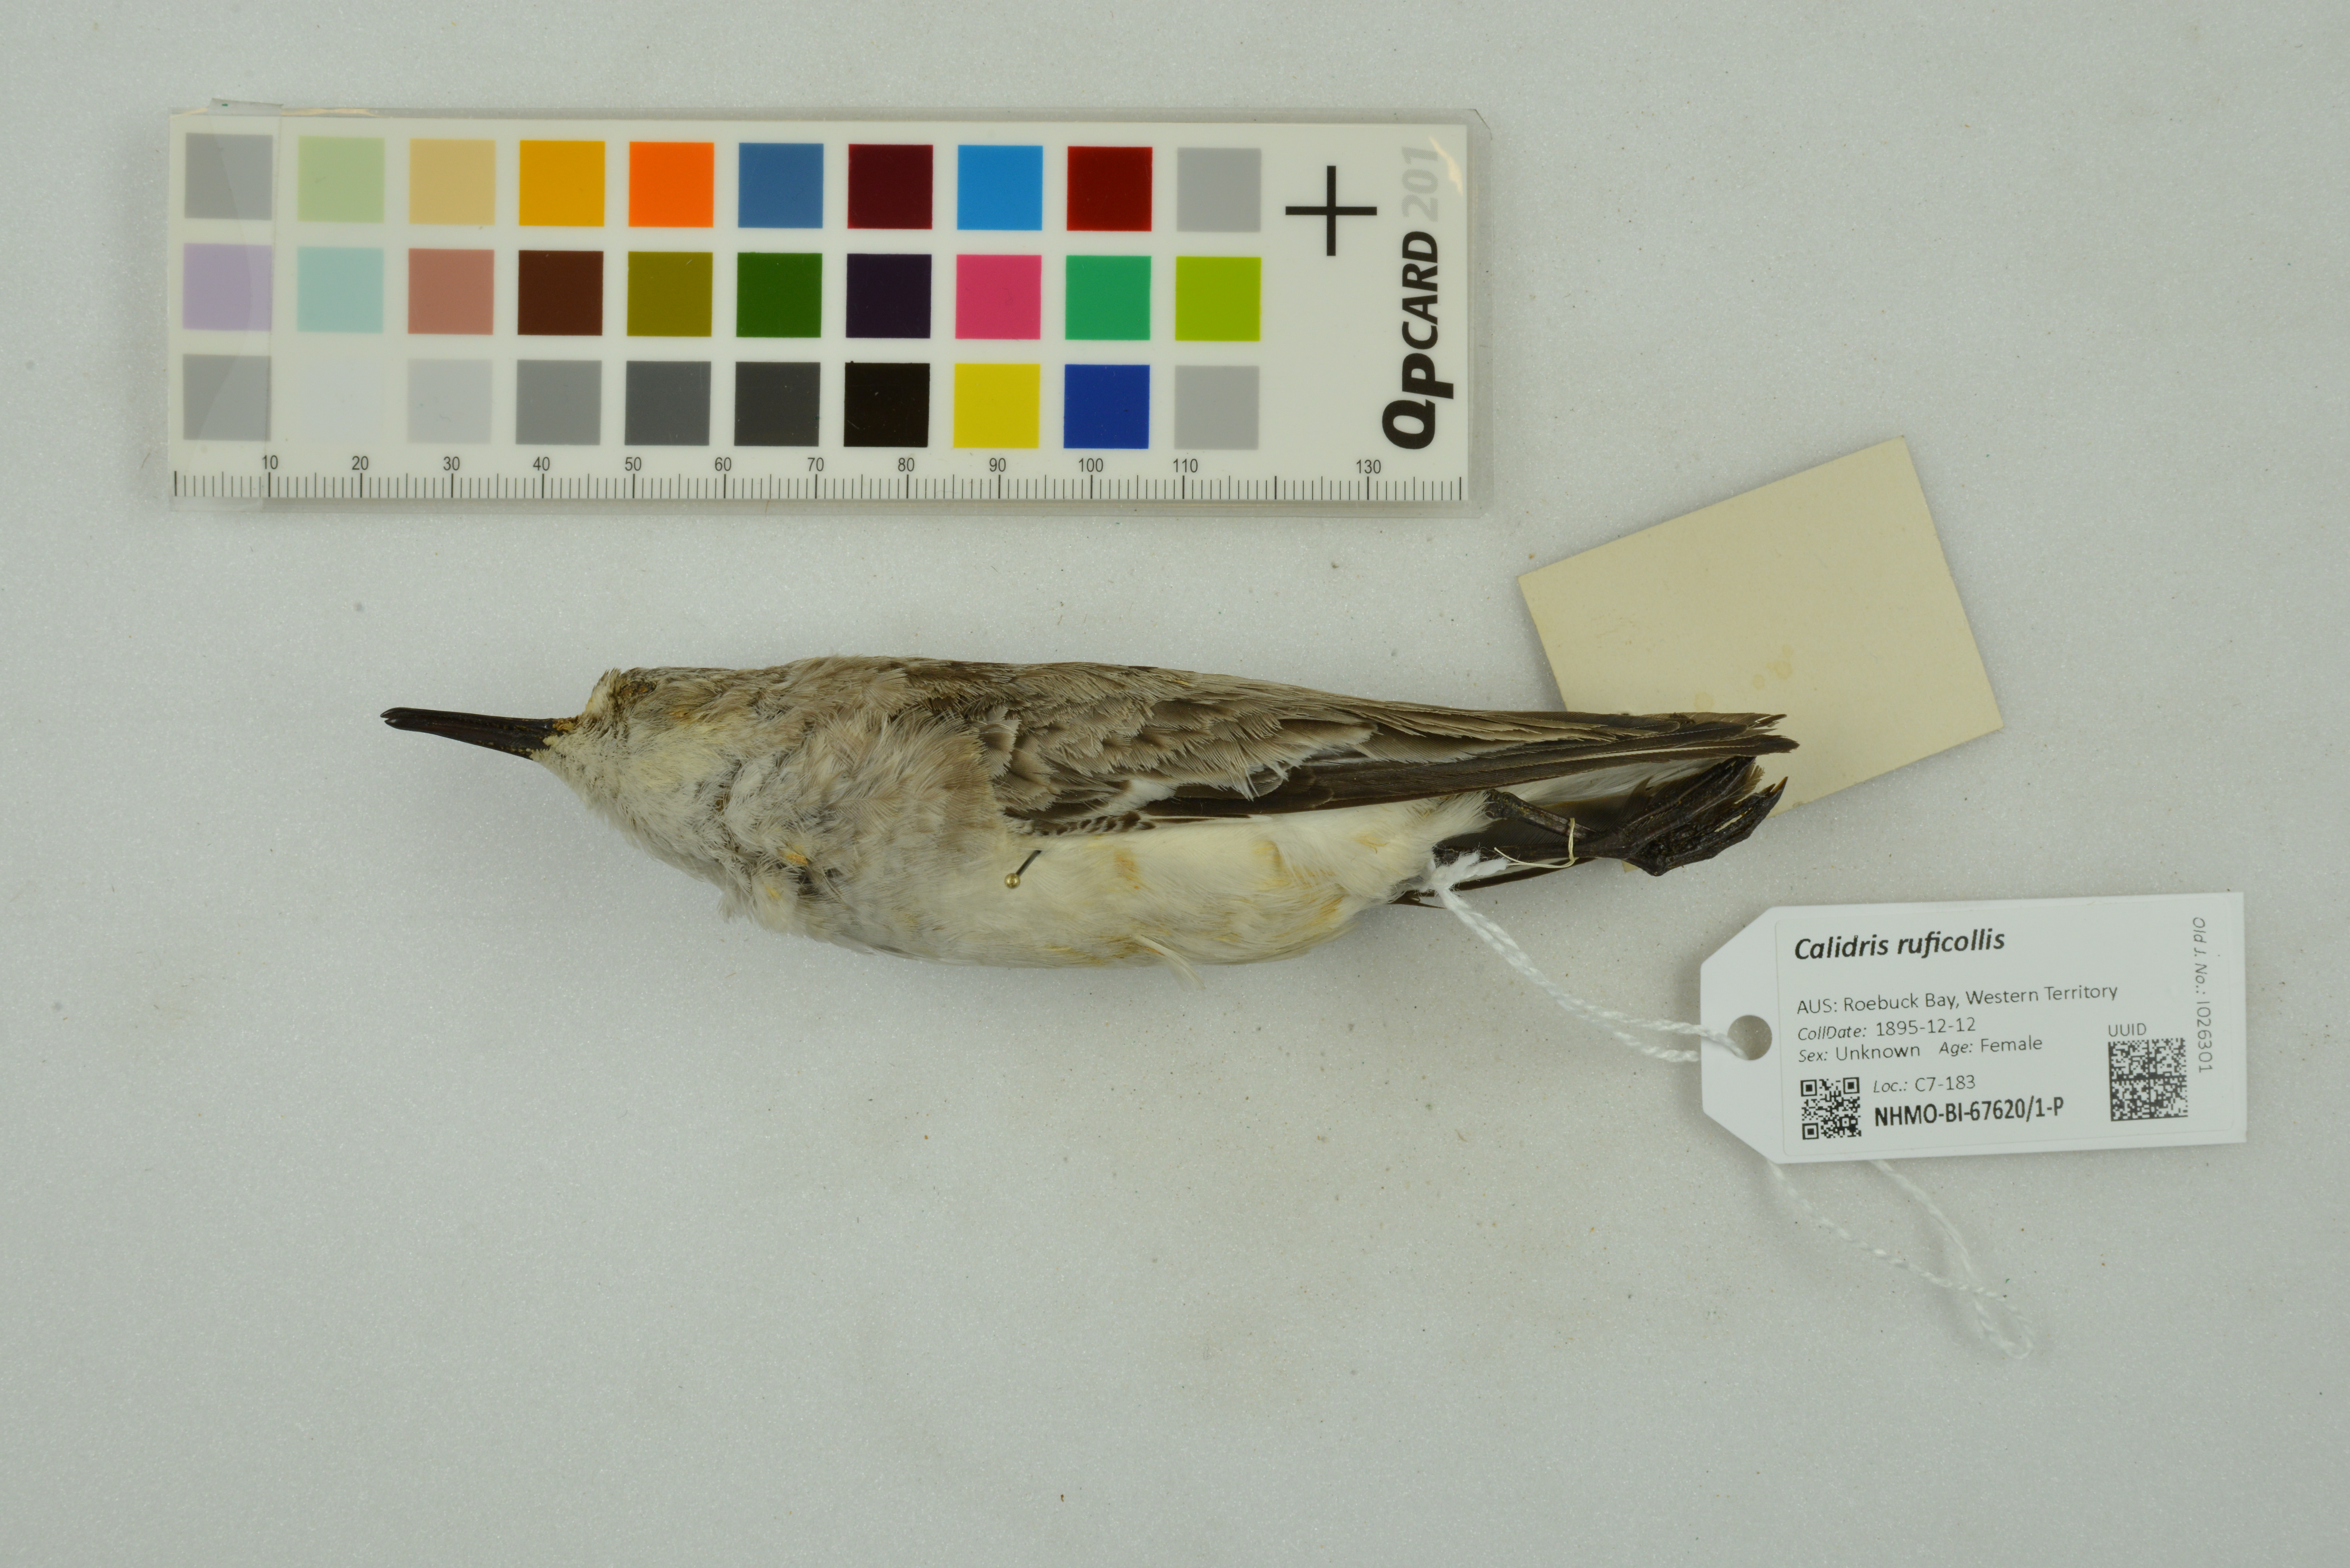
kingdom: Animalia
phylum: Chordata
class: Aves
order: Charadriiformes
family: Scolopacidae
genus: Calidris
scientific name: Calidris ruficollis
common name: Red-necked stint
